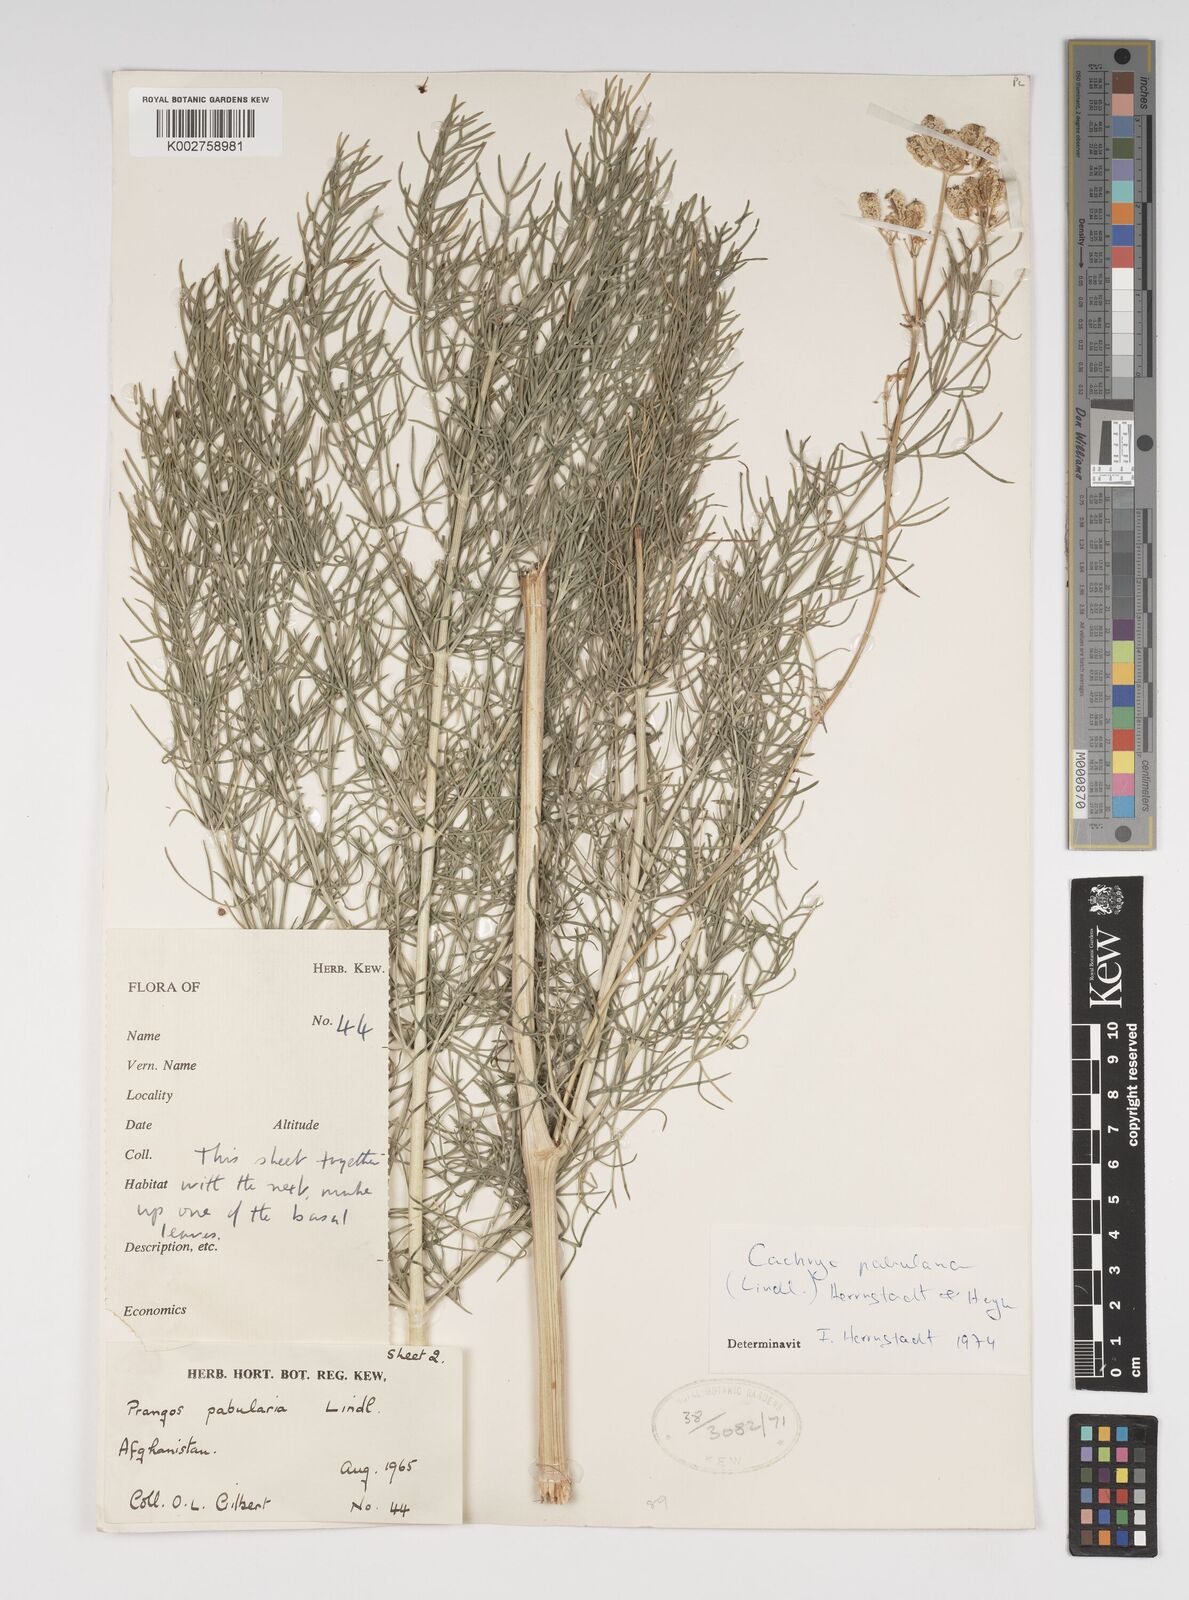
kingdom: Plantae
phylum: Tracheophyta
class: Magnoliopsida
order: Apiales
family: Apiaceae
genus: Prangos
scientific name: Prangos pabularia
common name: Yugan
